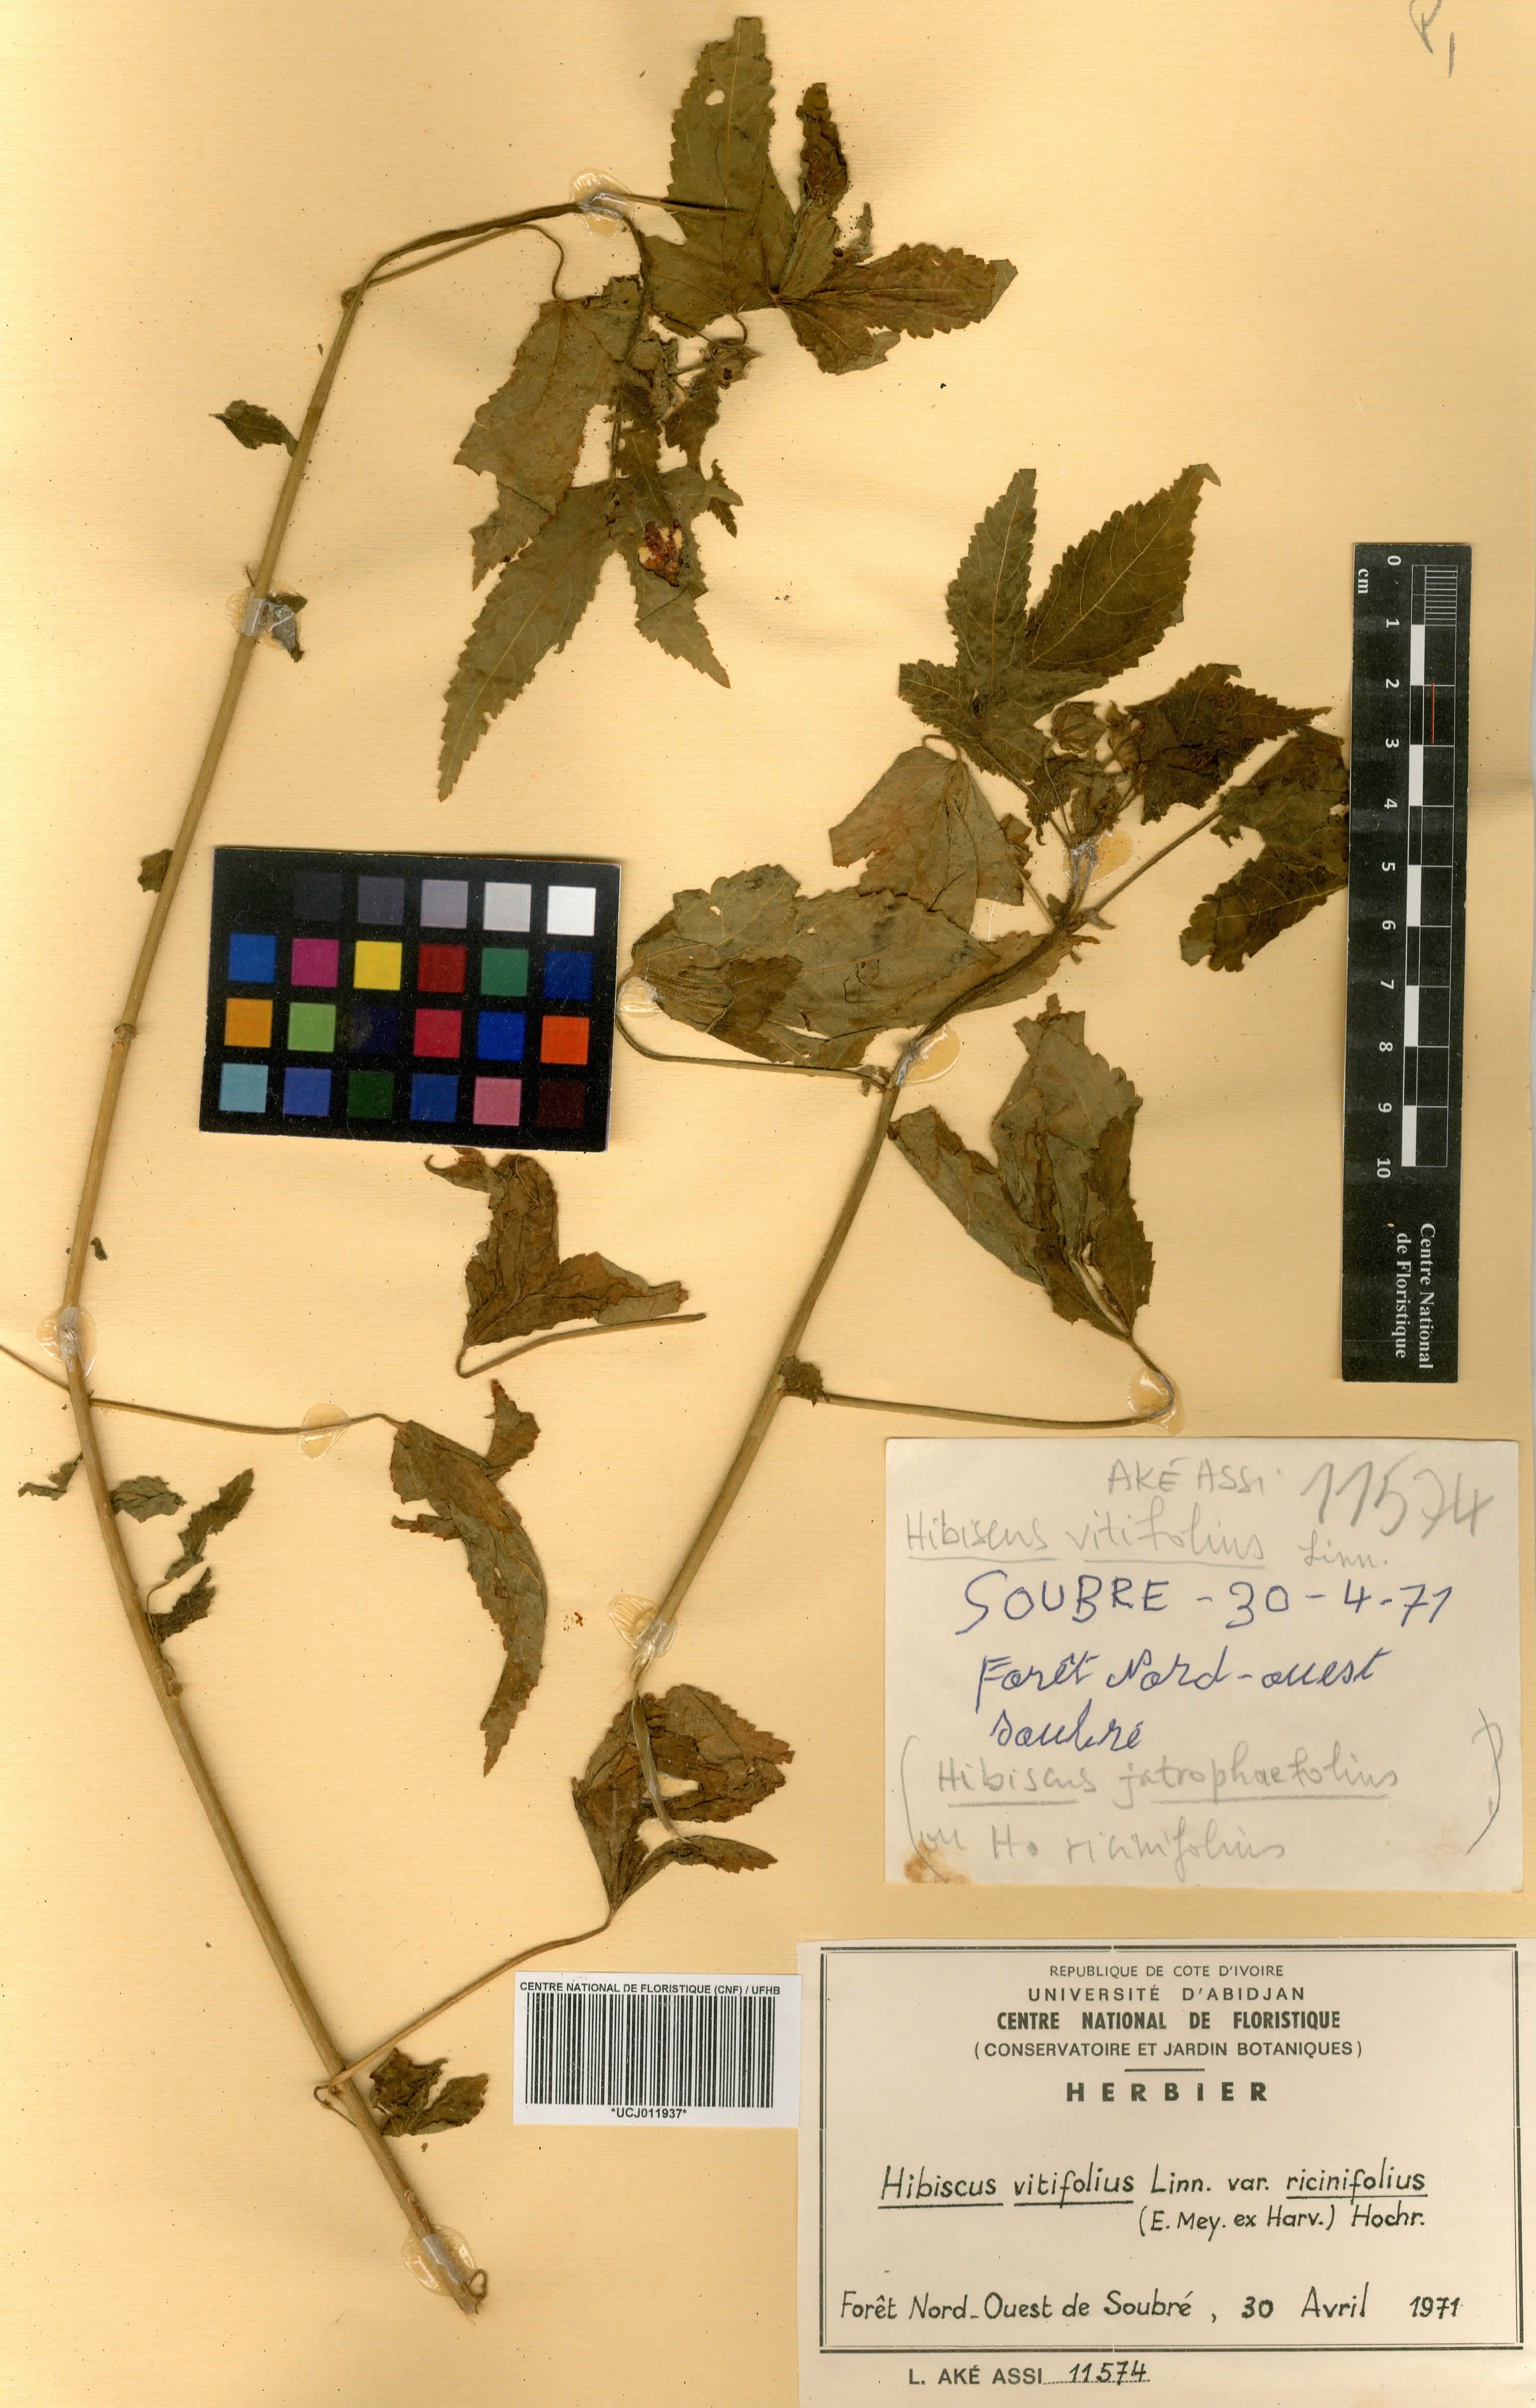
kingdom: Plantae
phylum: Tracheophyta
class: Magnoliopsida
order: Malvales
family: Malvaceae
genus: Hibiscus
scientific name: Hibiscus vitifolius
